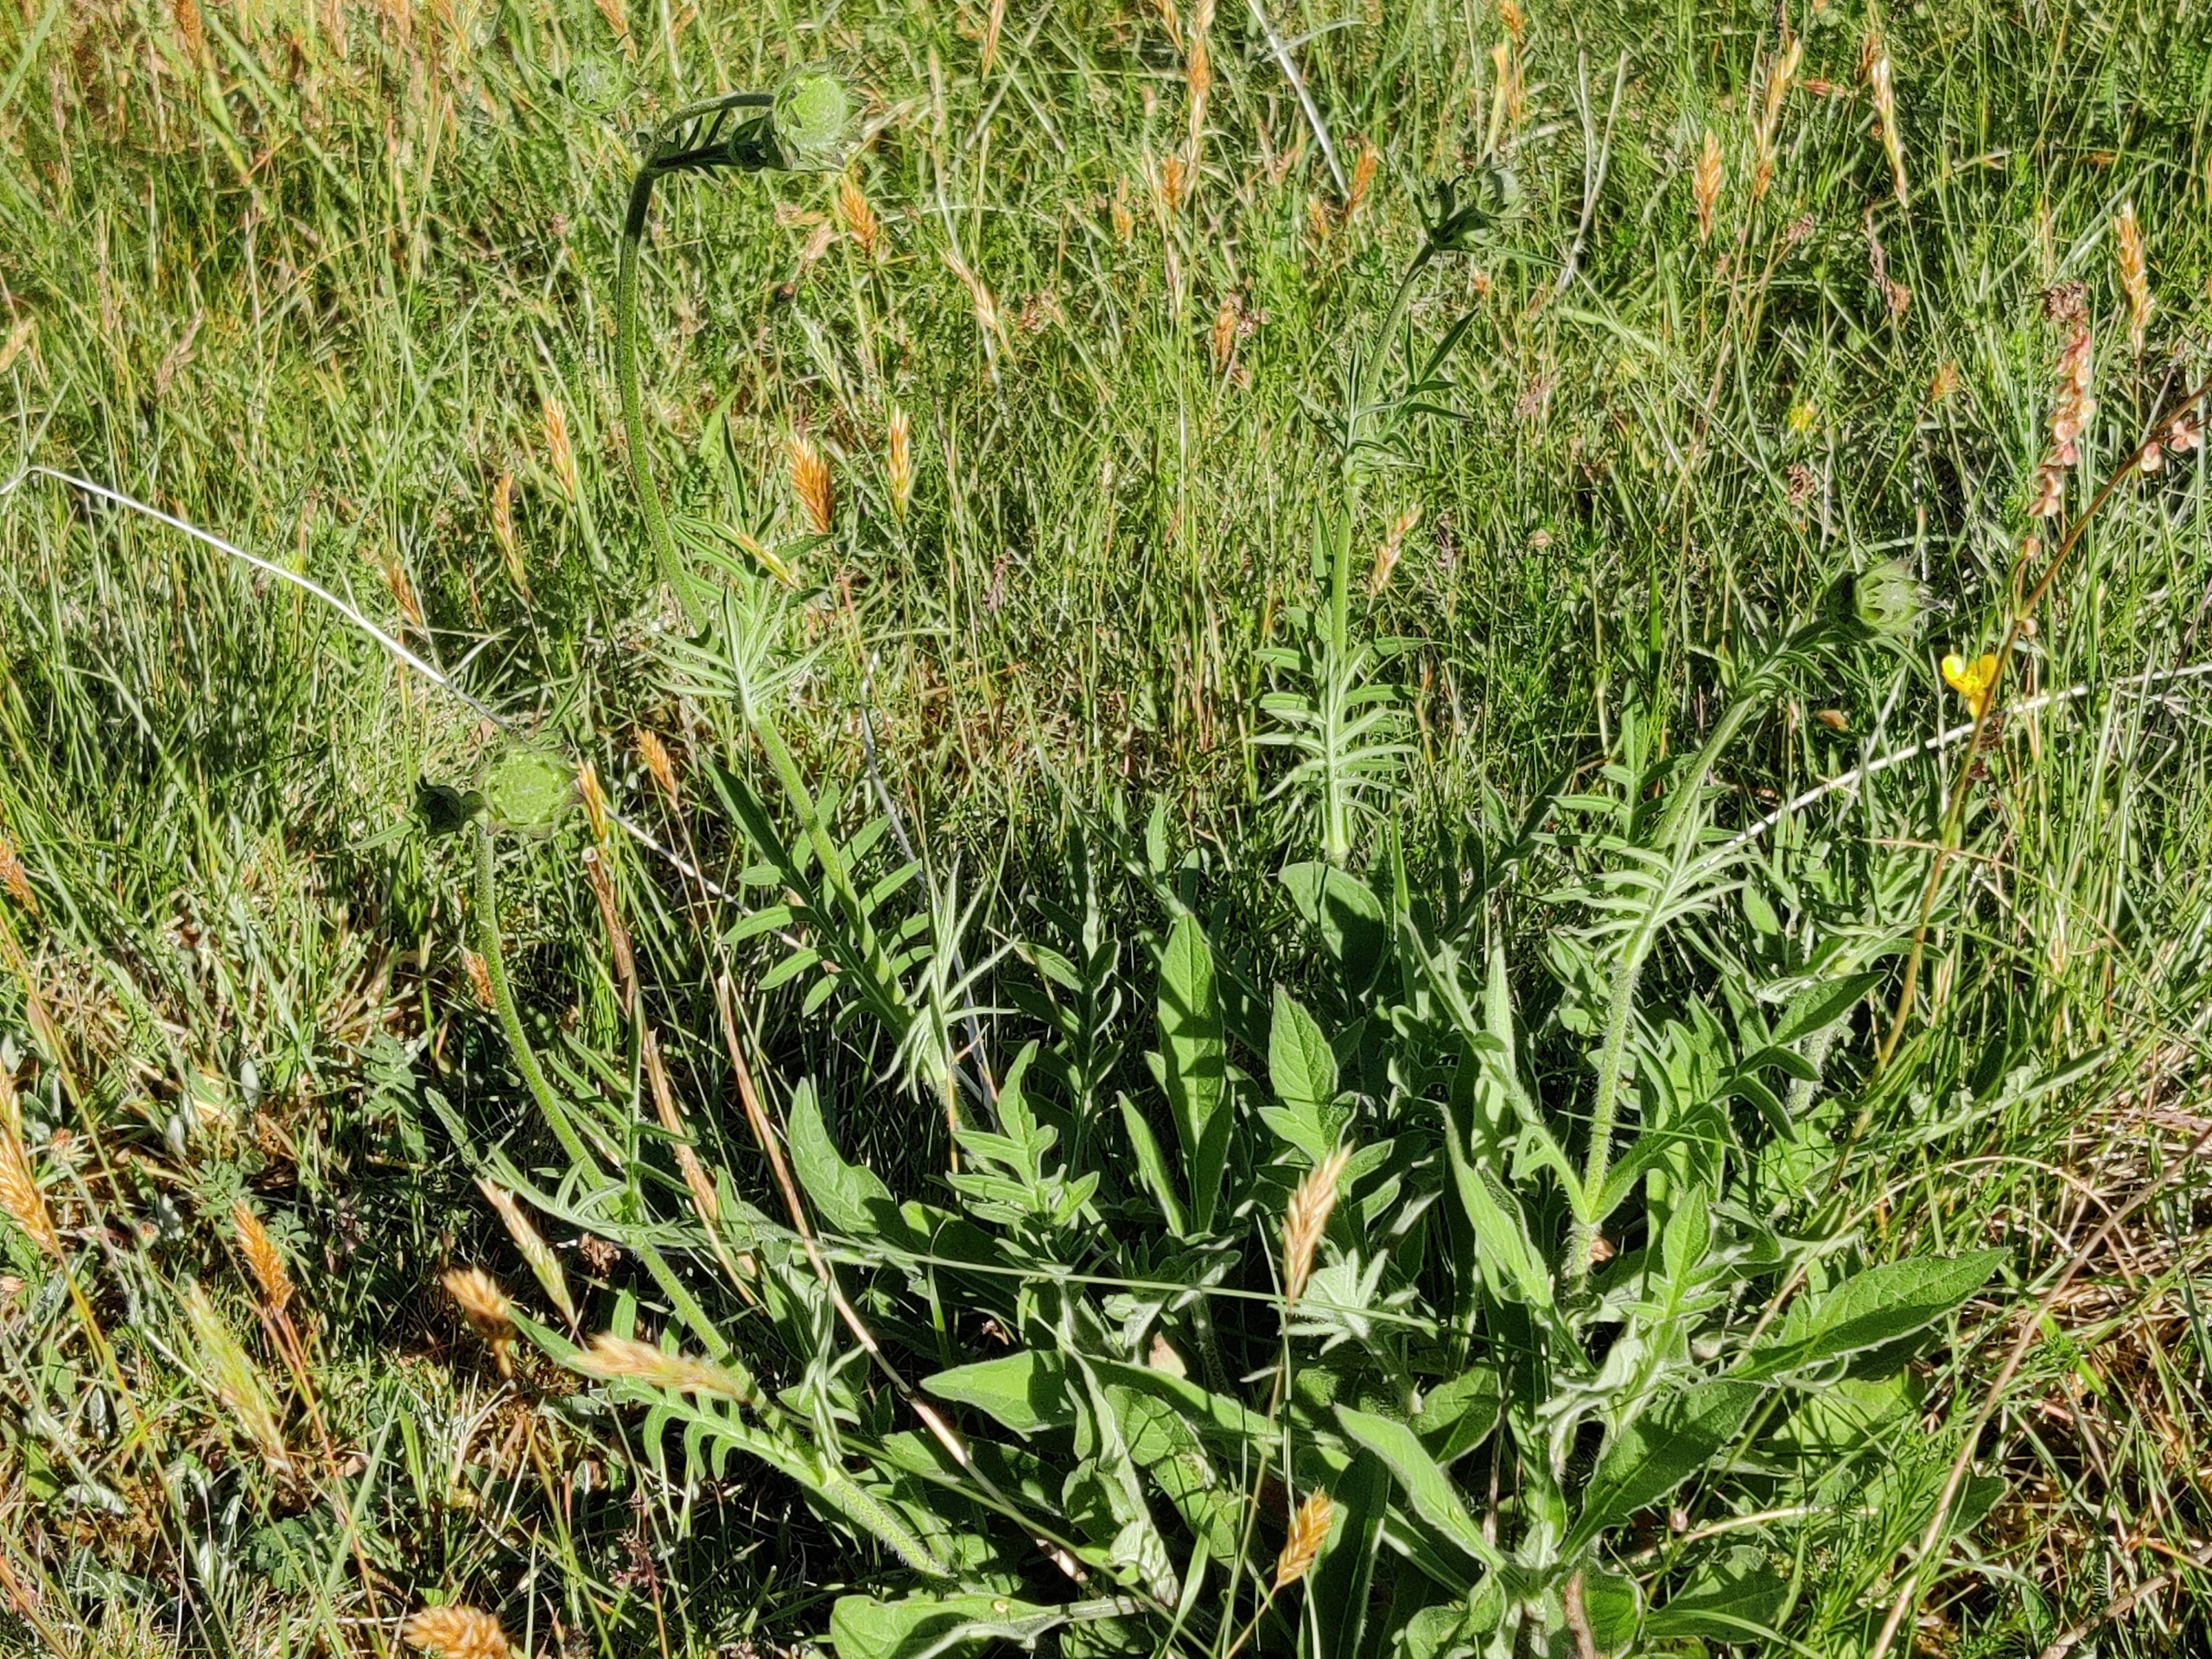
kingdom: Plantae
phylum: Tracheophyta
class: Magnoliopsida
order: Dipsacales
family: Caprifoliaceae
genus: Knautia
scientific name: Knautia arvensis
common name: Blåhat
